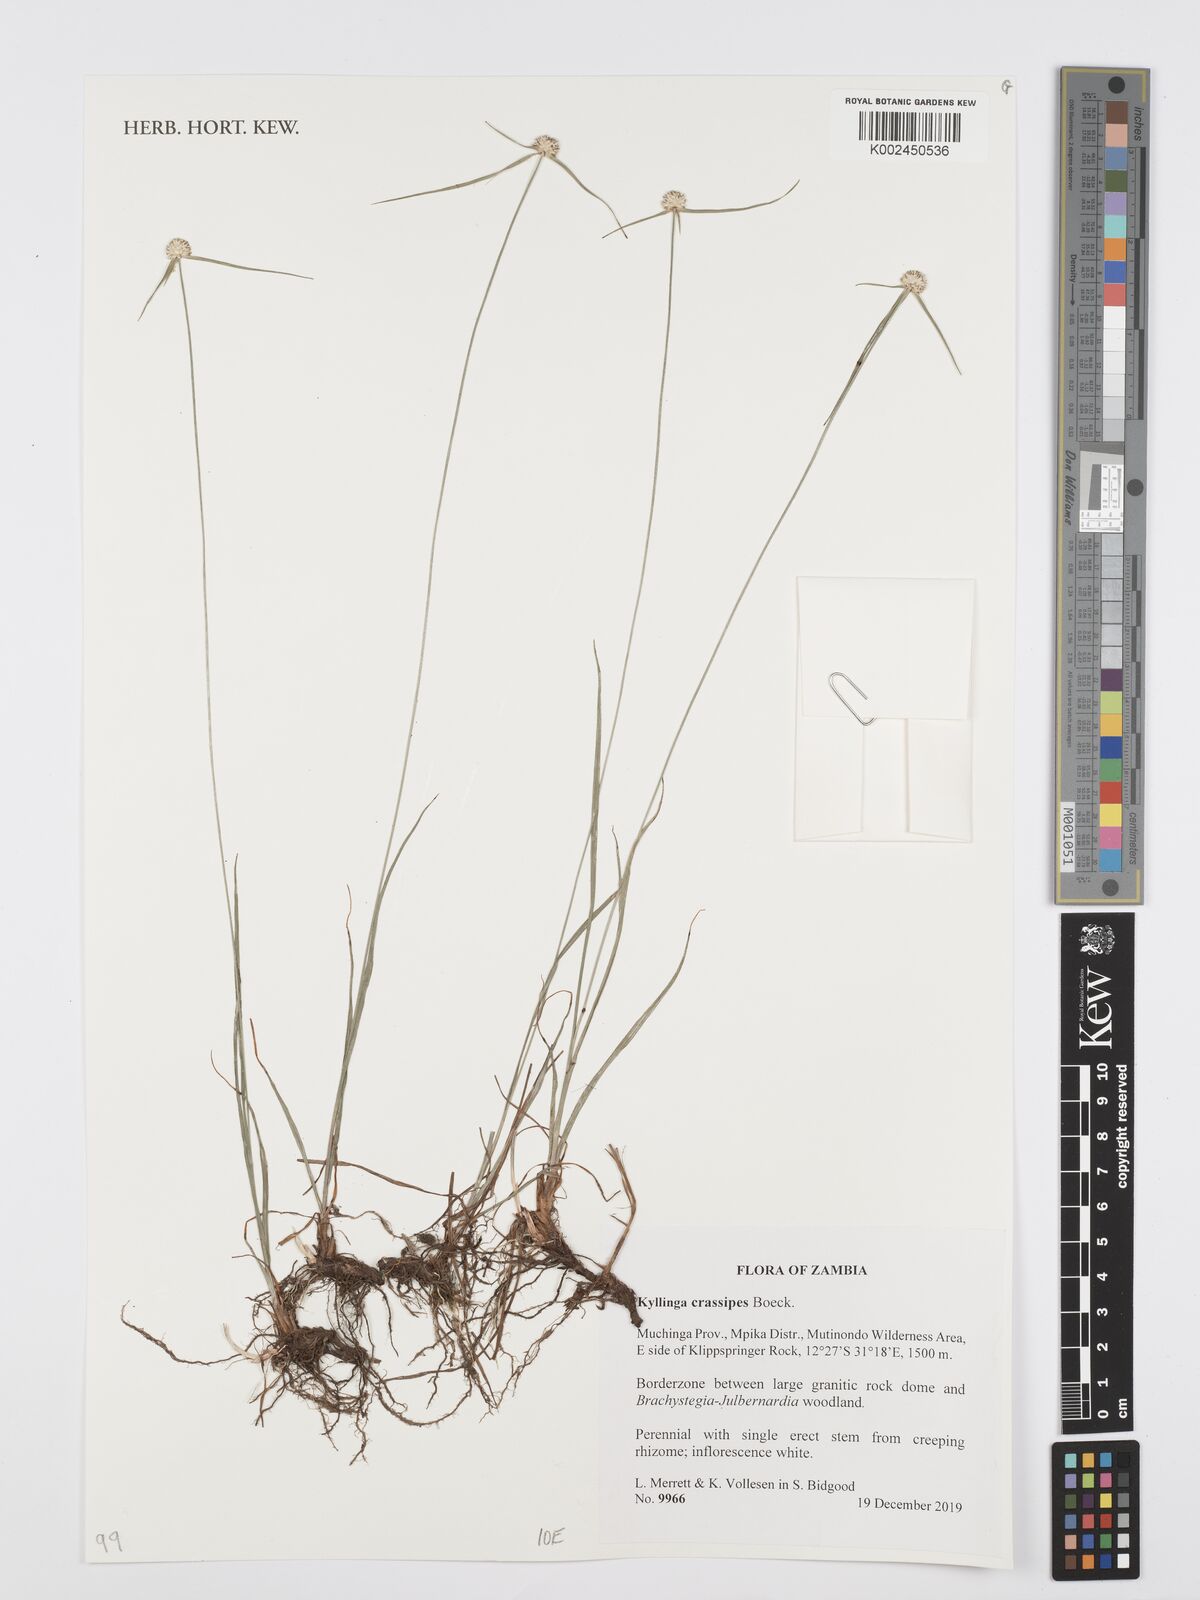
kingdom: Plantae
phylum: Tracheophyta
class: Liliopsida
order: Poales
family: Cyperaceae
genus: Cyperus
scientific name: Cyperus crassipes
